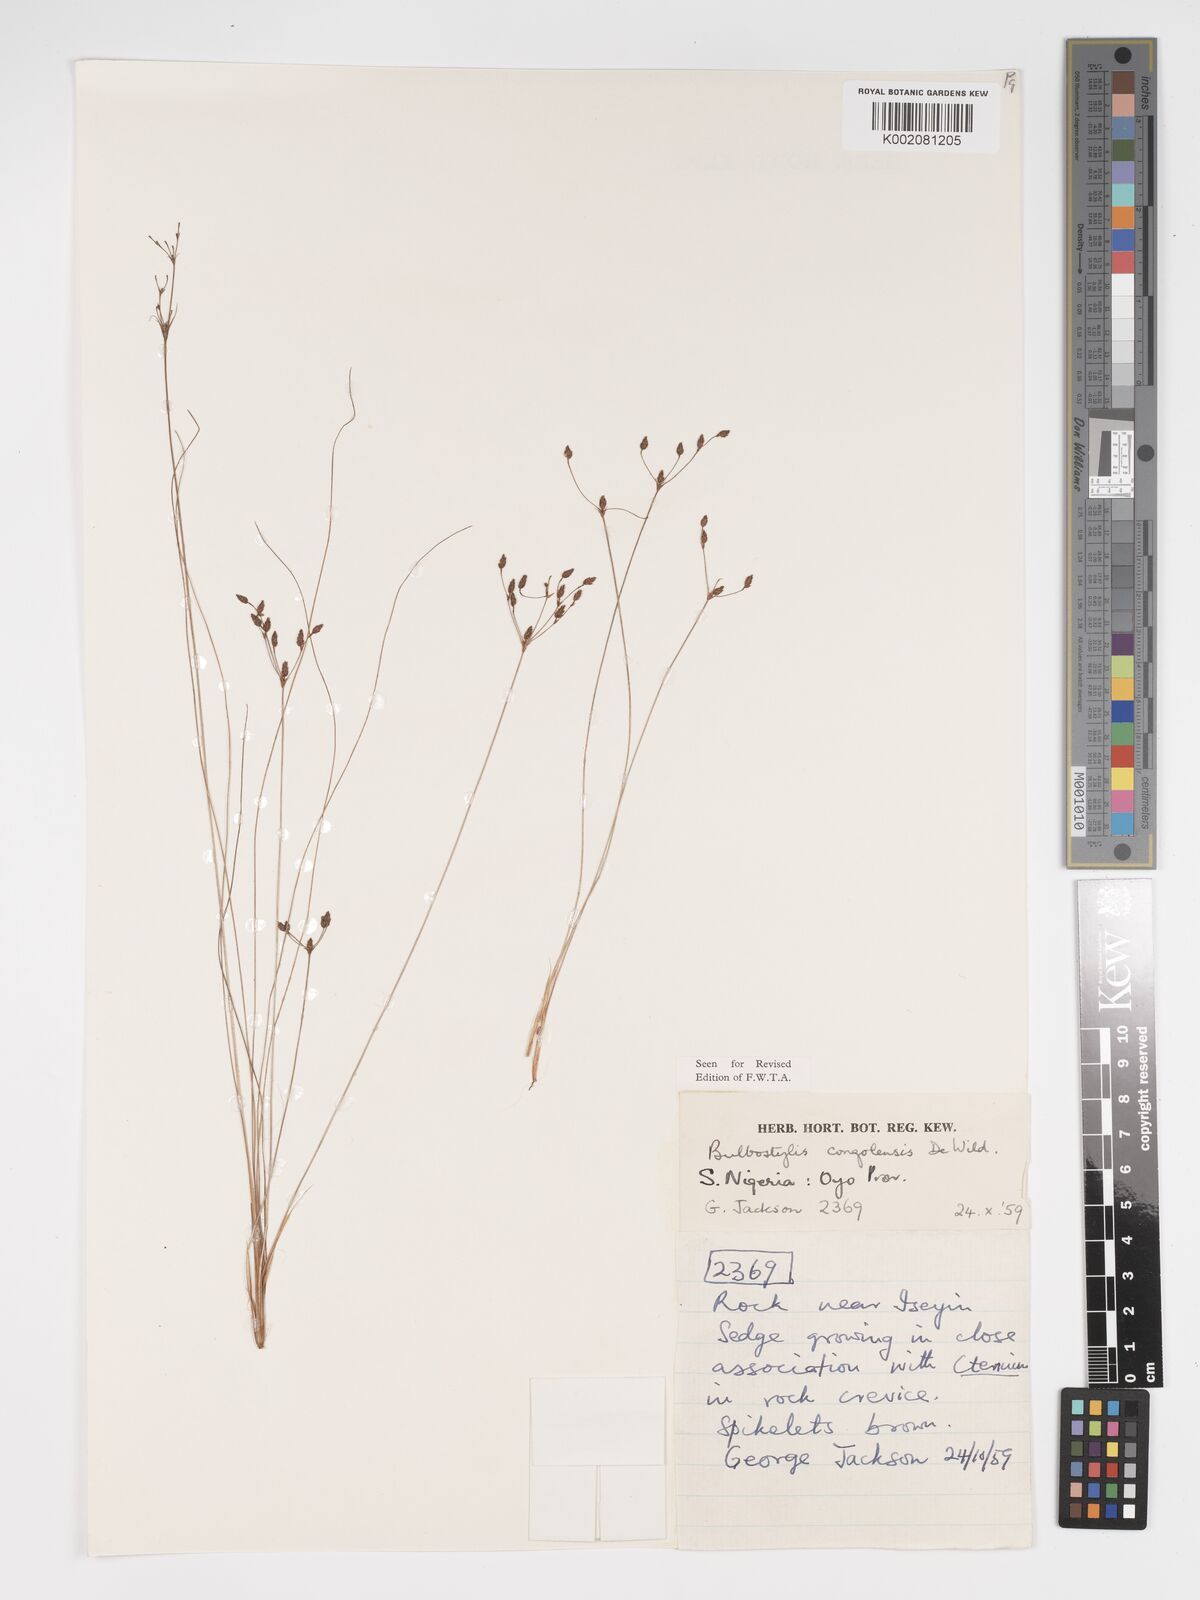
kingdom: Plantae
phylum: Tracheophyta
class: Liliopsida
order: Poales
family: Cyperaceae
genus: Bulbostylis
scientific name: Bulbostylis congolensis
